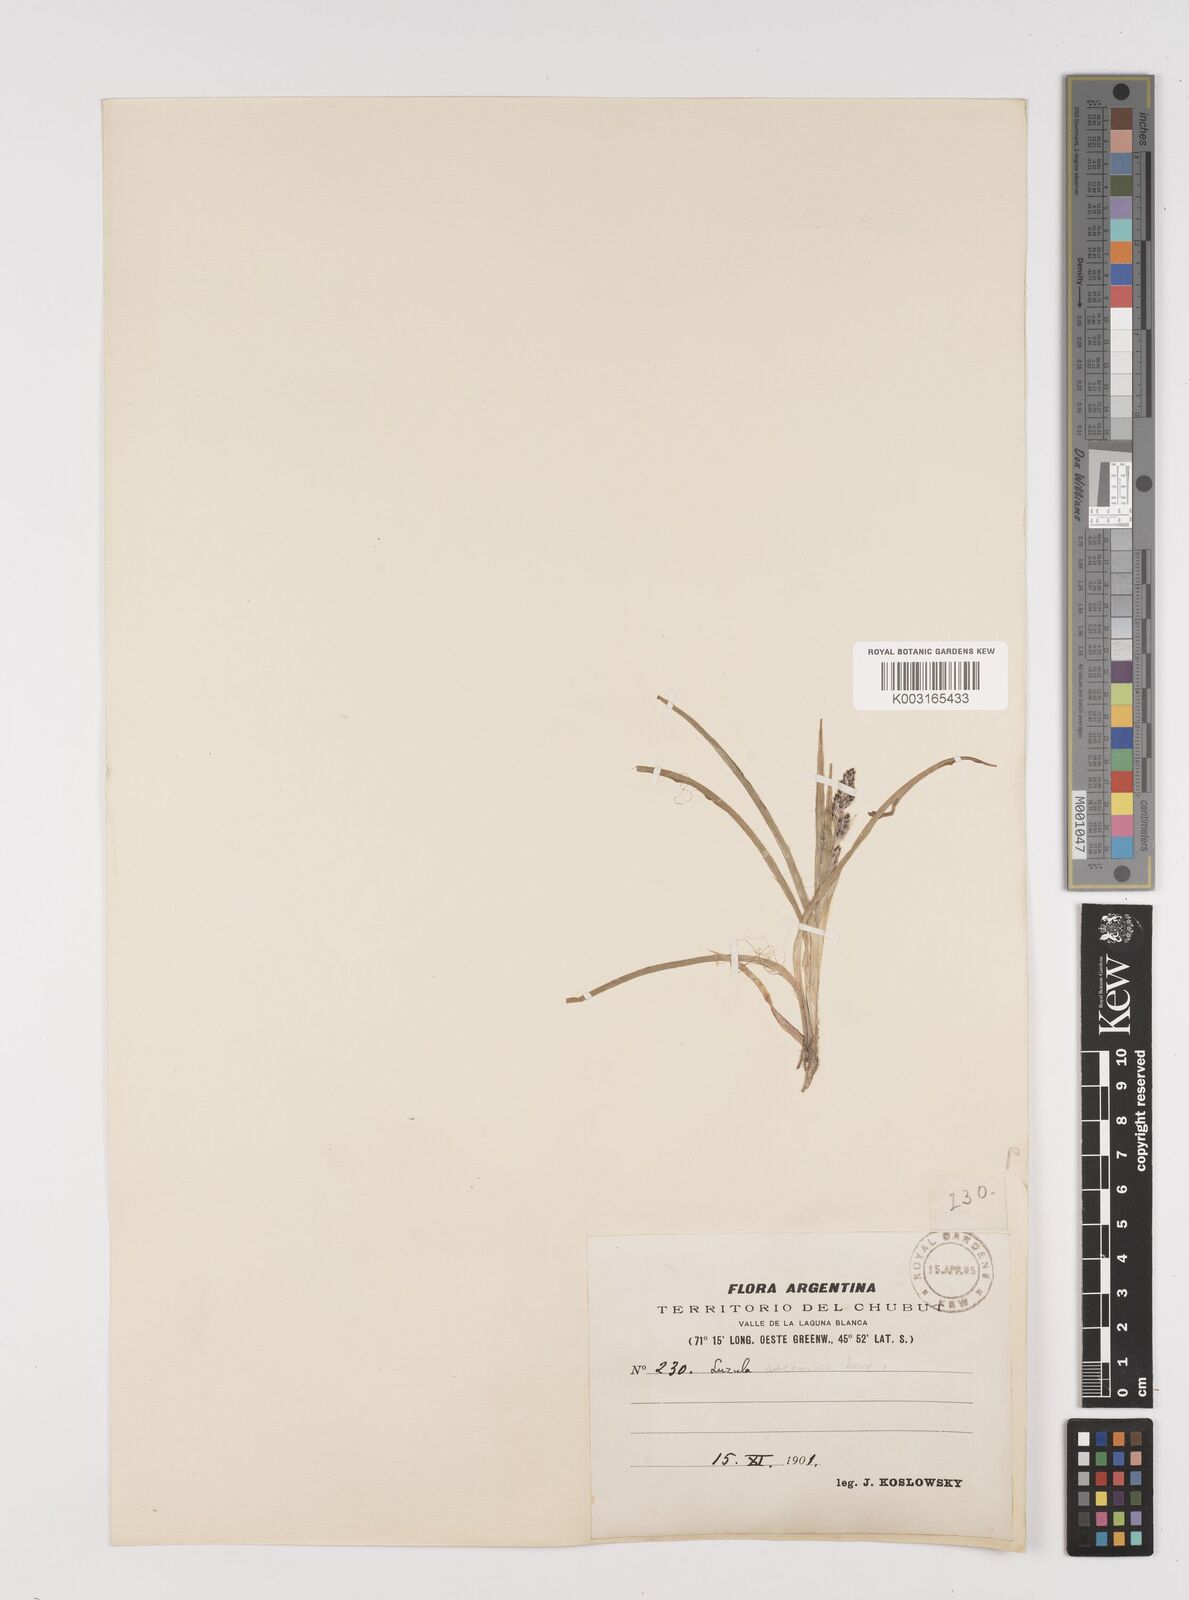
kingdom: Plantae
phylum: Tracheophyta
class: Liliopsida
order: Poales
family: Juncaceae
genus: Luzula
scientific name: Luzula alopecurus
